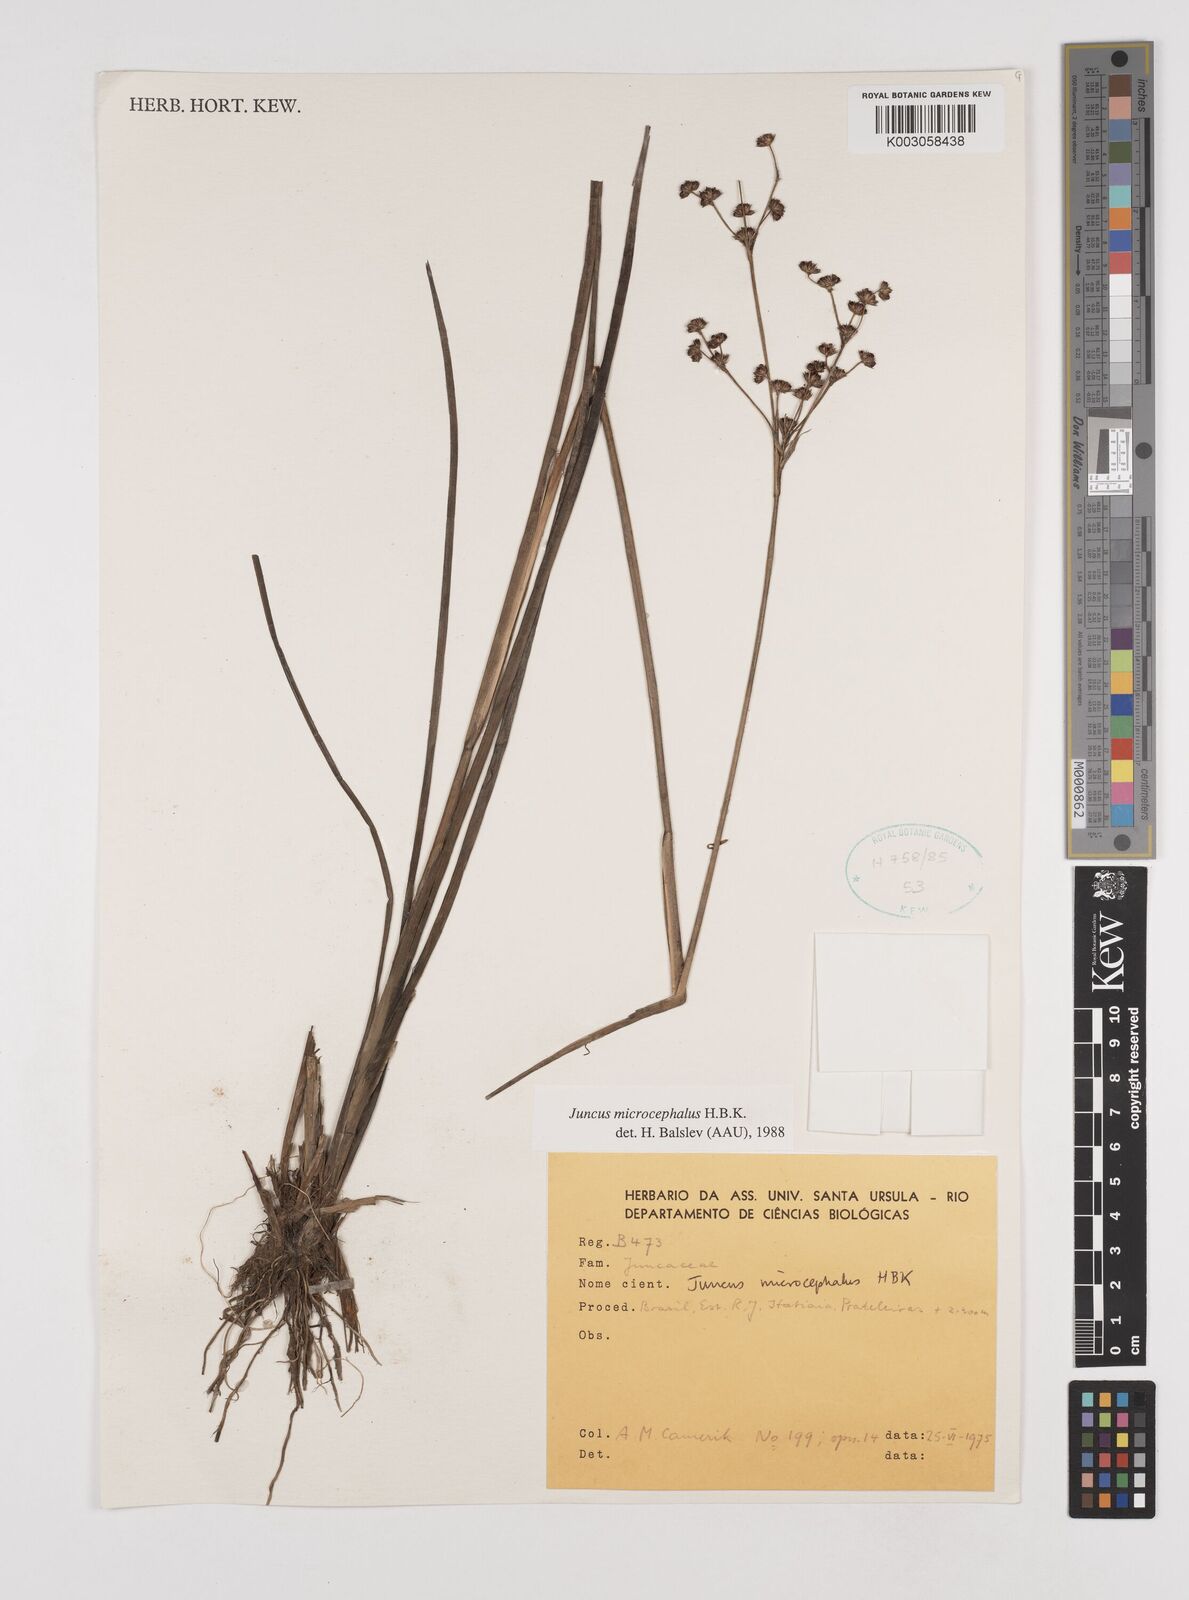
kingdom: Plantae
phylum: Tracheophyta
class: Liliopsida
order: Poales
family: Juncaceae
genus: Juncus
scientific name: Juncus microcephalus
